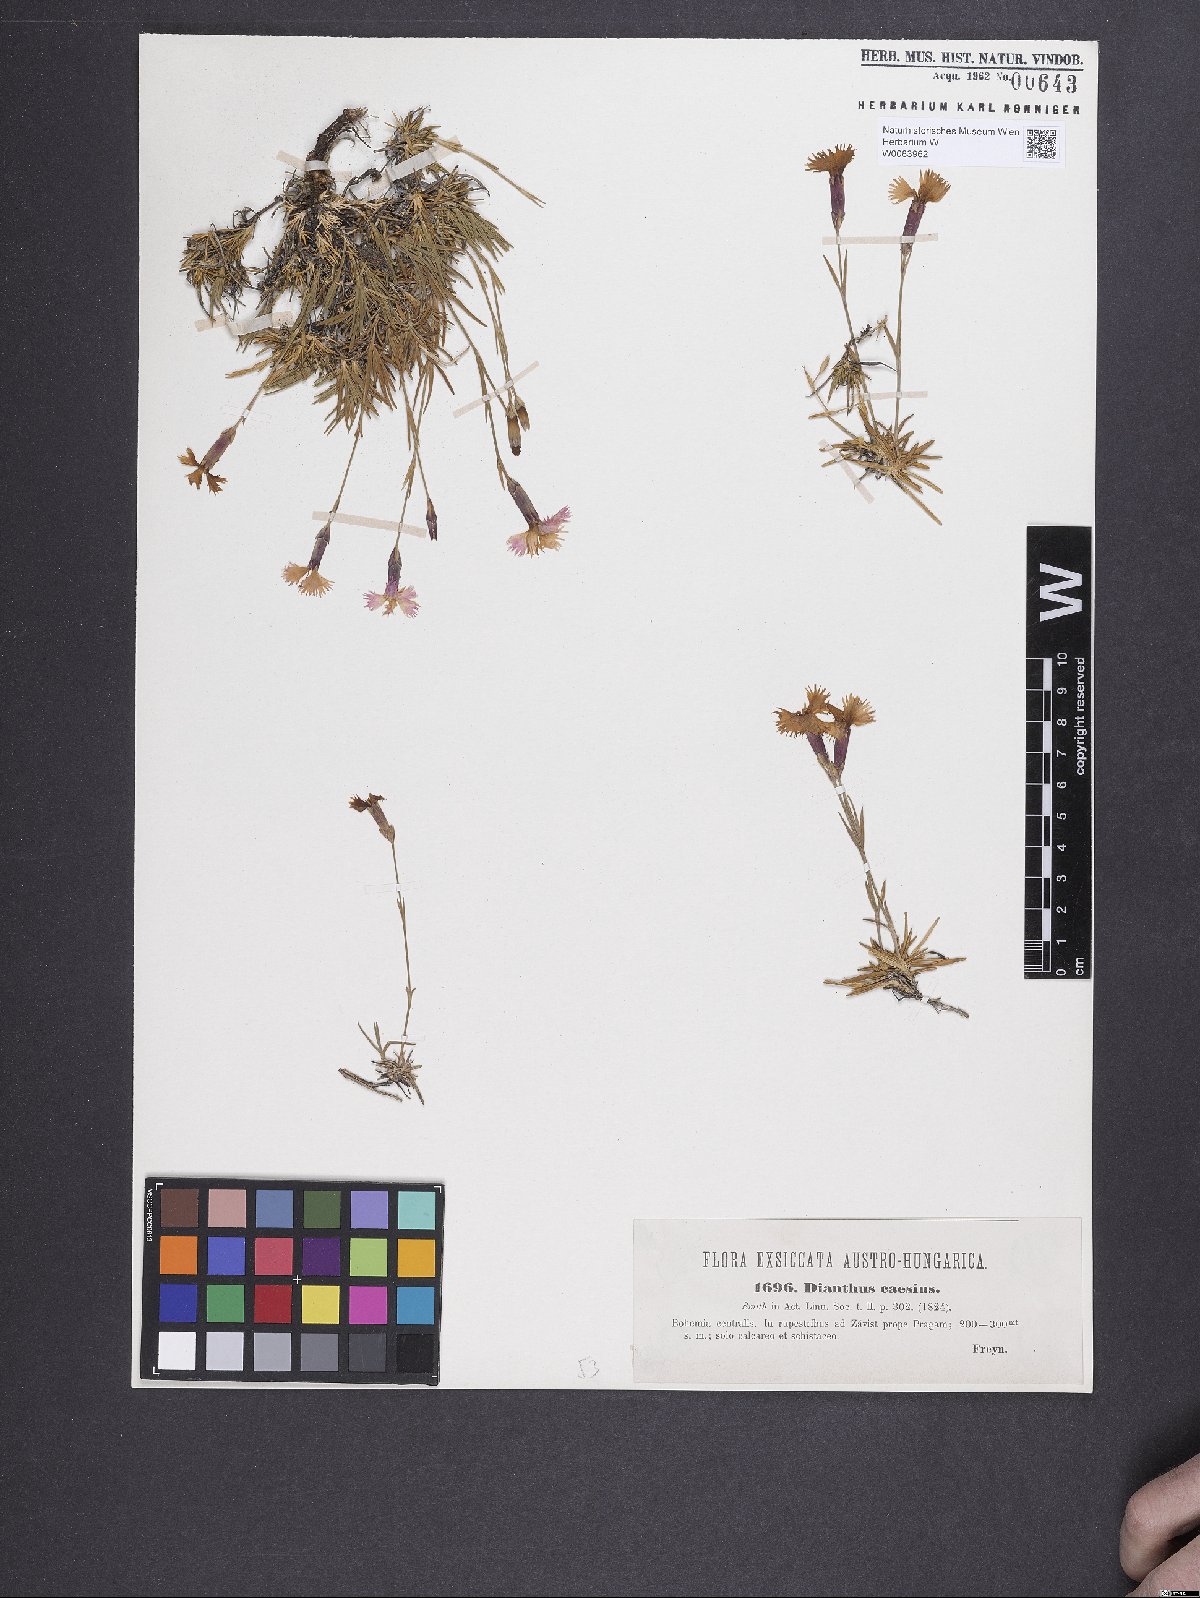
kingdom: Plantae
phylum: Tracheophyta
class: Magnoliopsida
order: Caryophyllales
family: Caryophyllaceae
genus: Dianthus
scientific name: Dianthus gratianopolitanus
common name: Cheddar pink
